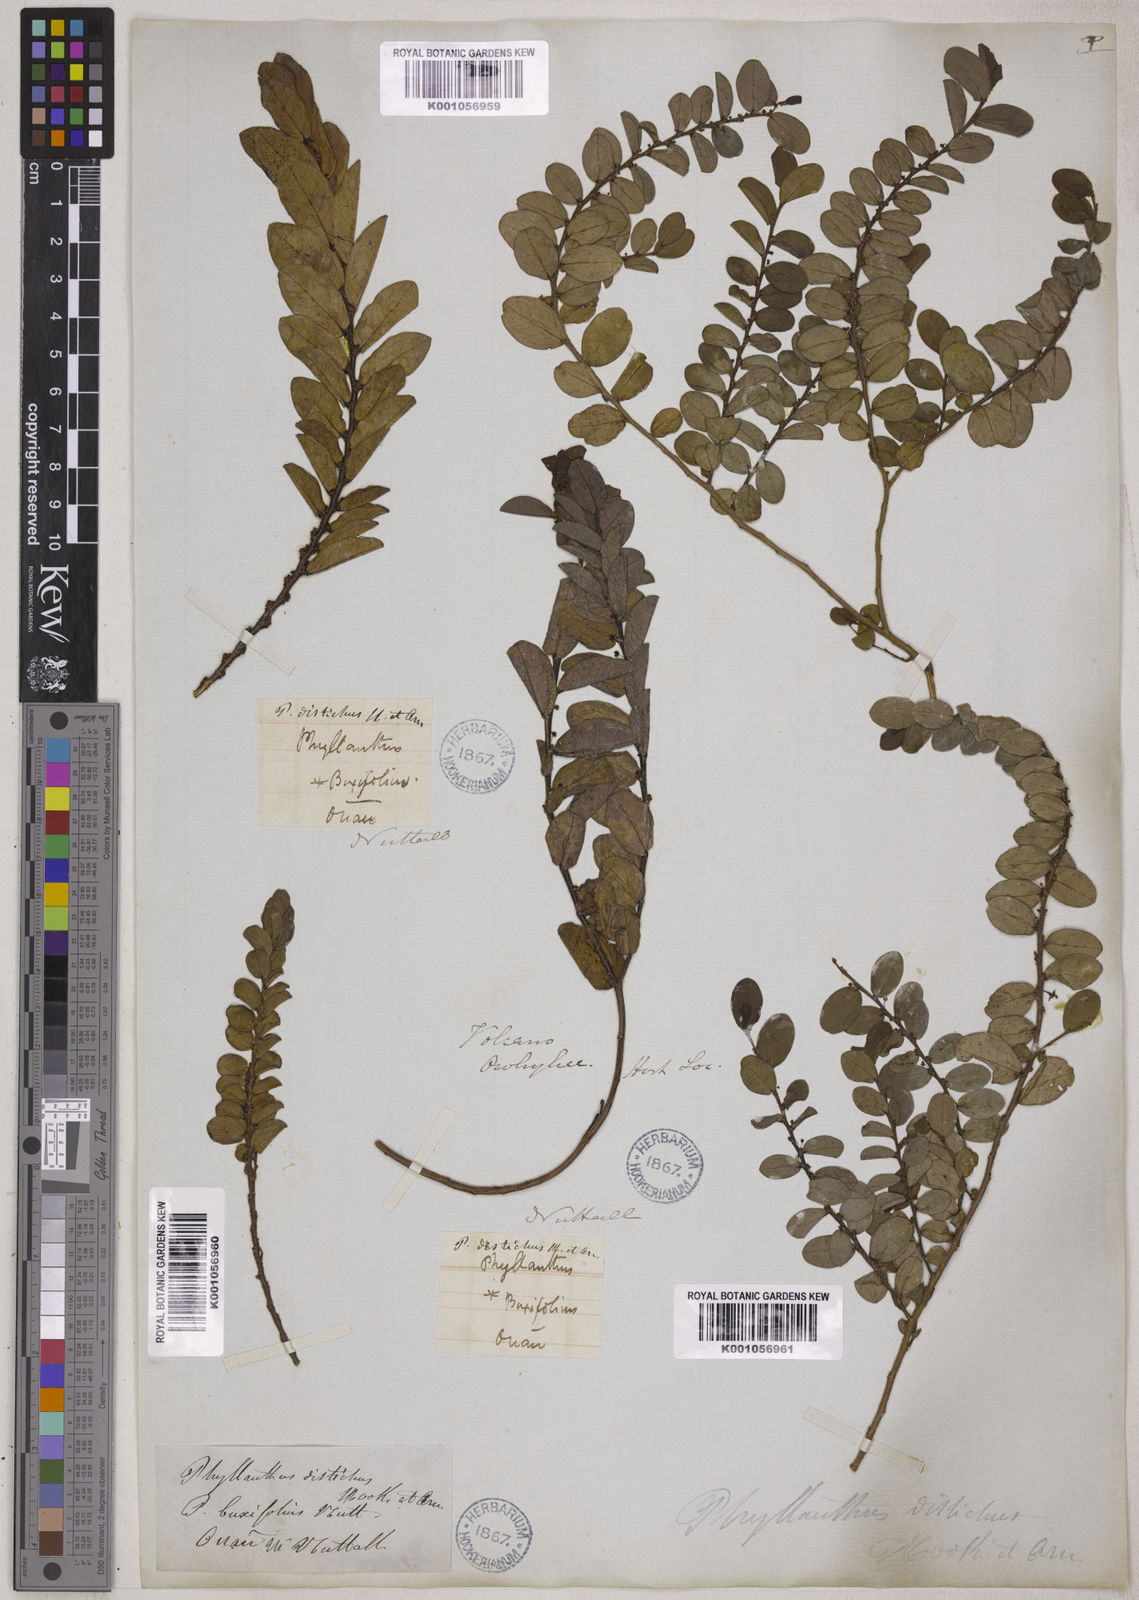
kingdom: Plantae
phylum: Tracheophyta
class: Magnoliopsida
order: Malpighiales
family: Phyllanthaceae
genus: Phyllanthus
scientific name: Phyllanthus distichus
